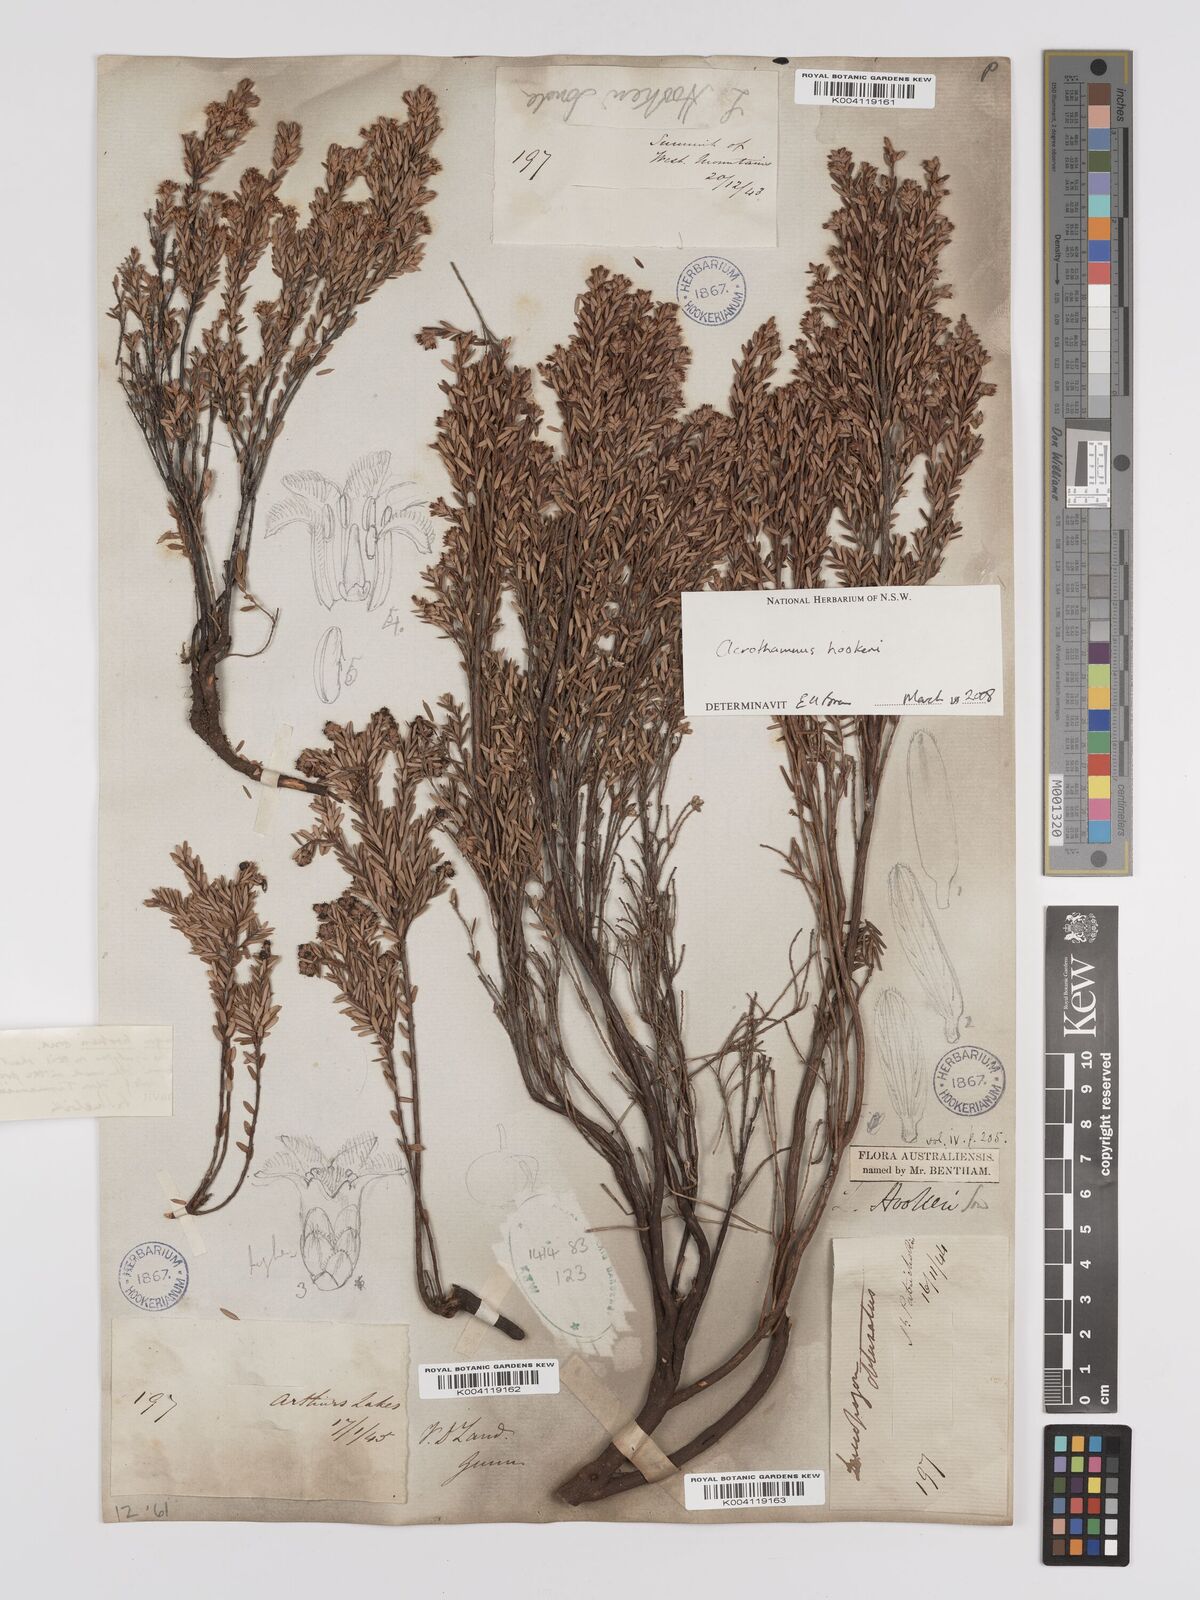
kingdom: Plantae
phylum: Tracheophyta
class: Magnoliopsida
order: Ericales
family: Ericaceae
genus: Acrothamnus
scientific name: Acrothamnus hookeri
